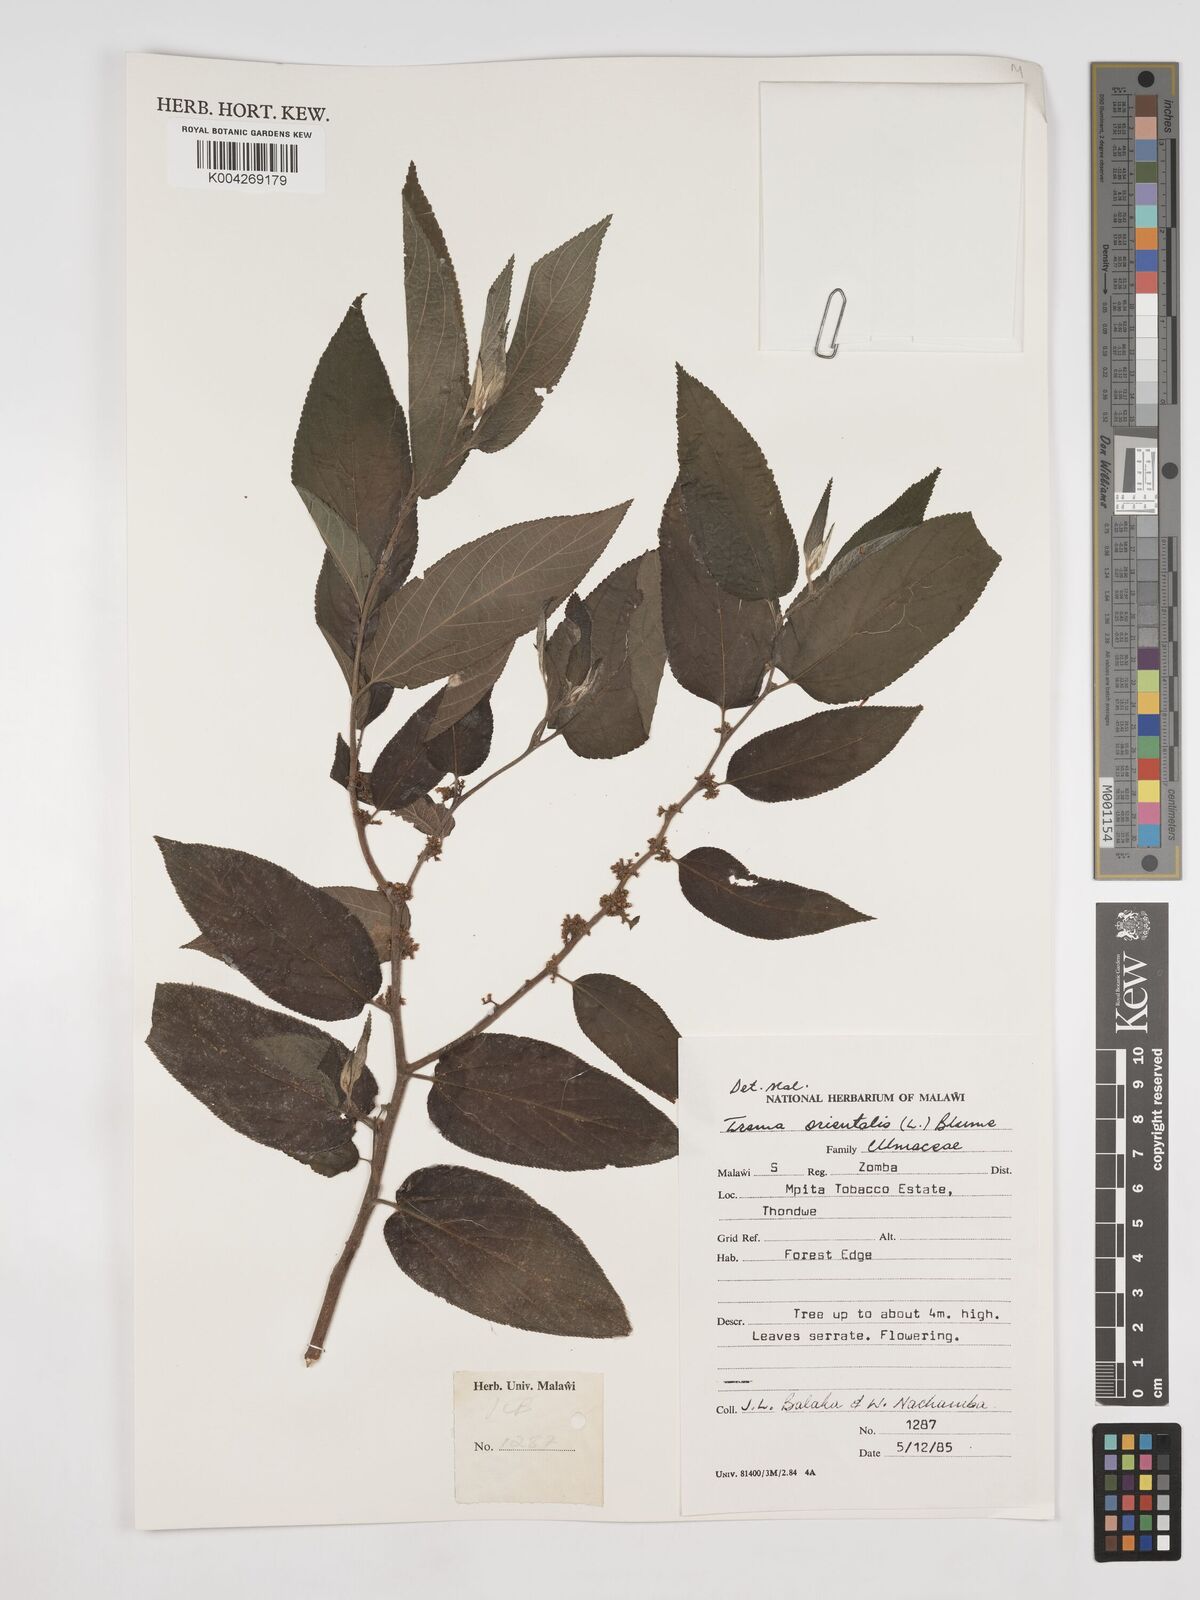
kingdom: Plantae
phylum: Tracheophyta
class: Magnoliopsida
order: Rosales
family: Cannabaceae
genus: Trema
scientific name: Trema orientale
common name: Indian charcoal tree
